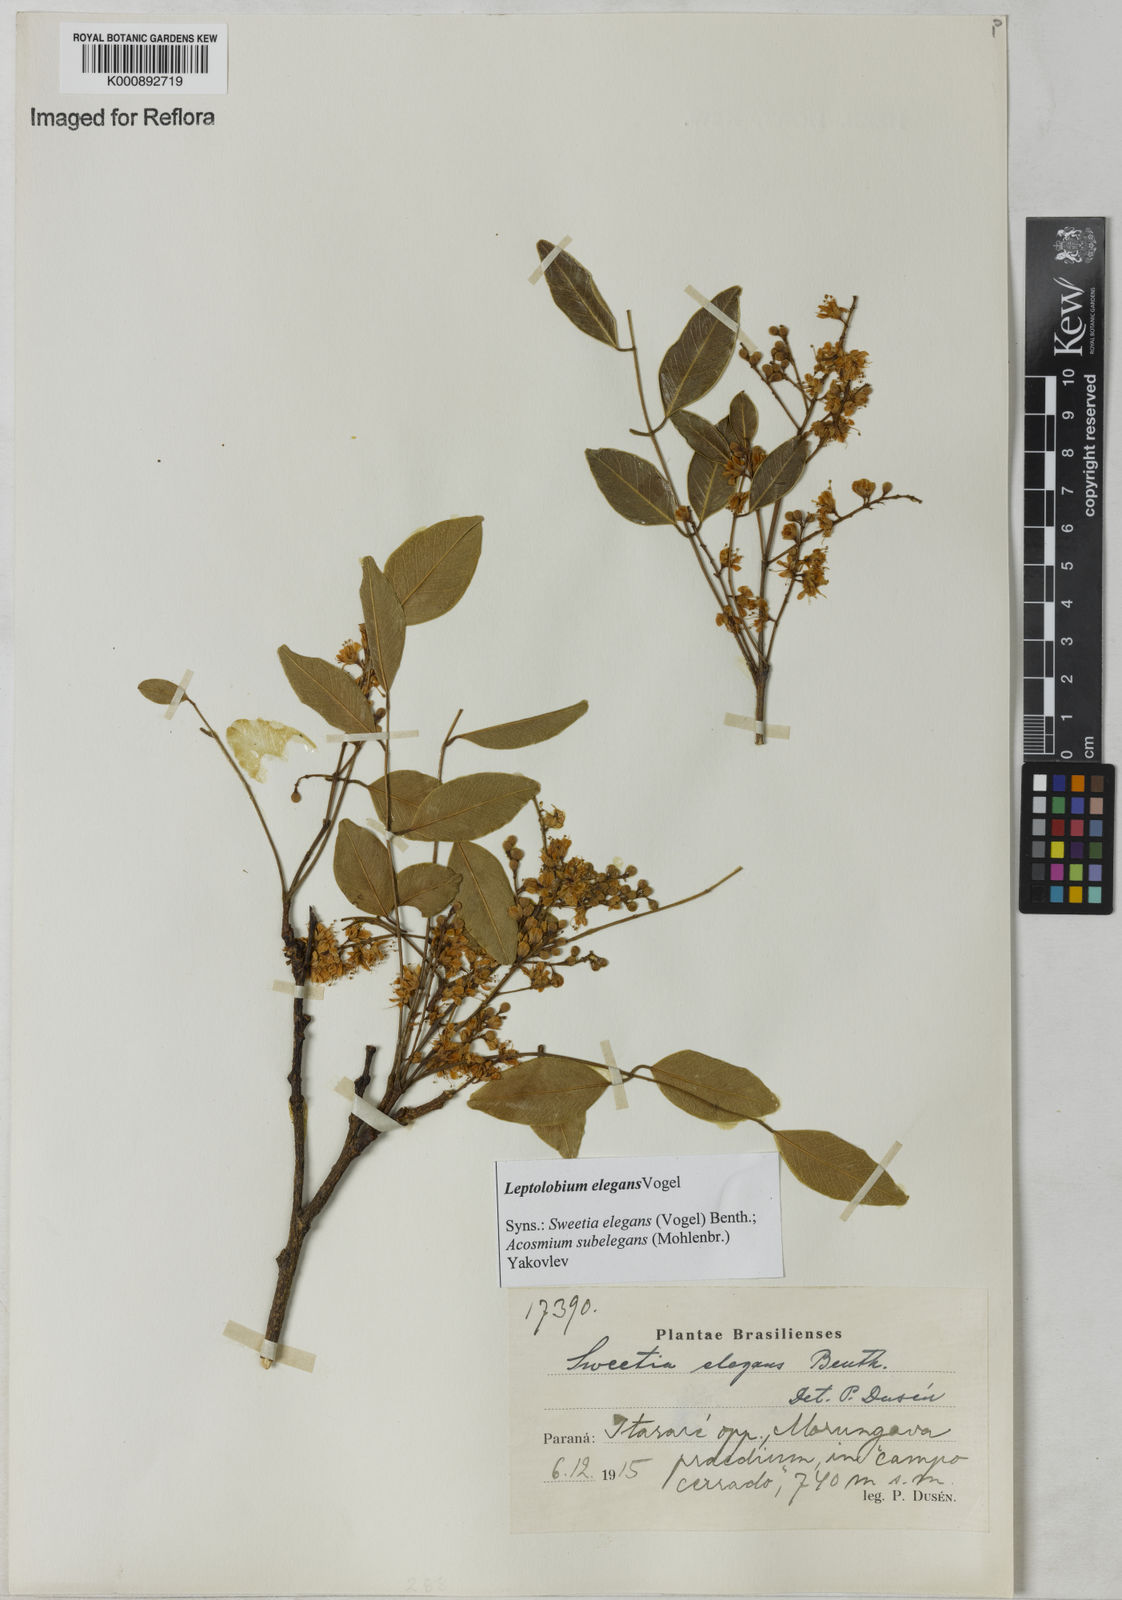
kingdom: Plantae
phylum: Tracheophyta
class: Magnoliopsida
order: Fabales
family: Fabaceae
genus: Leptolobium
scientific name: Leptolobium elegans
